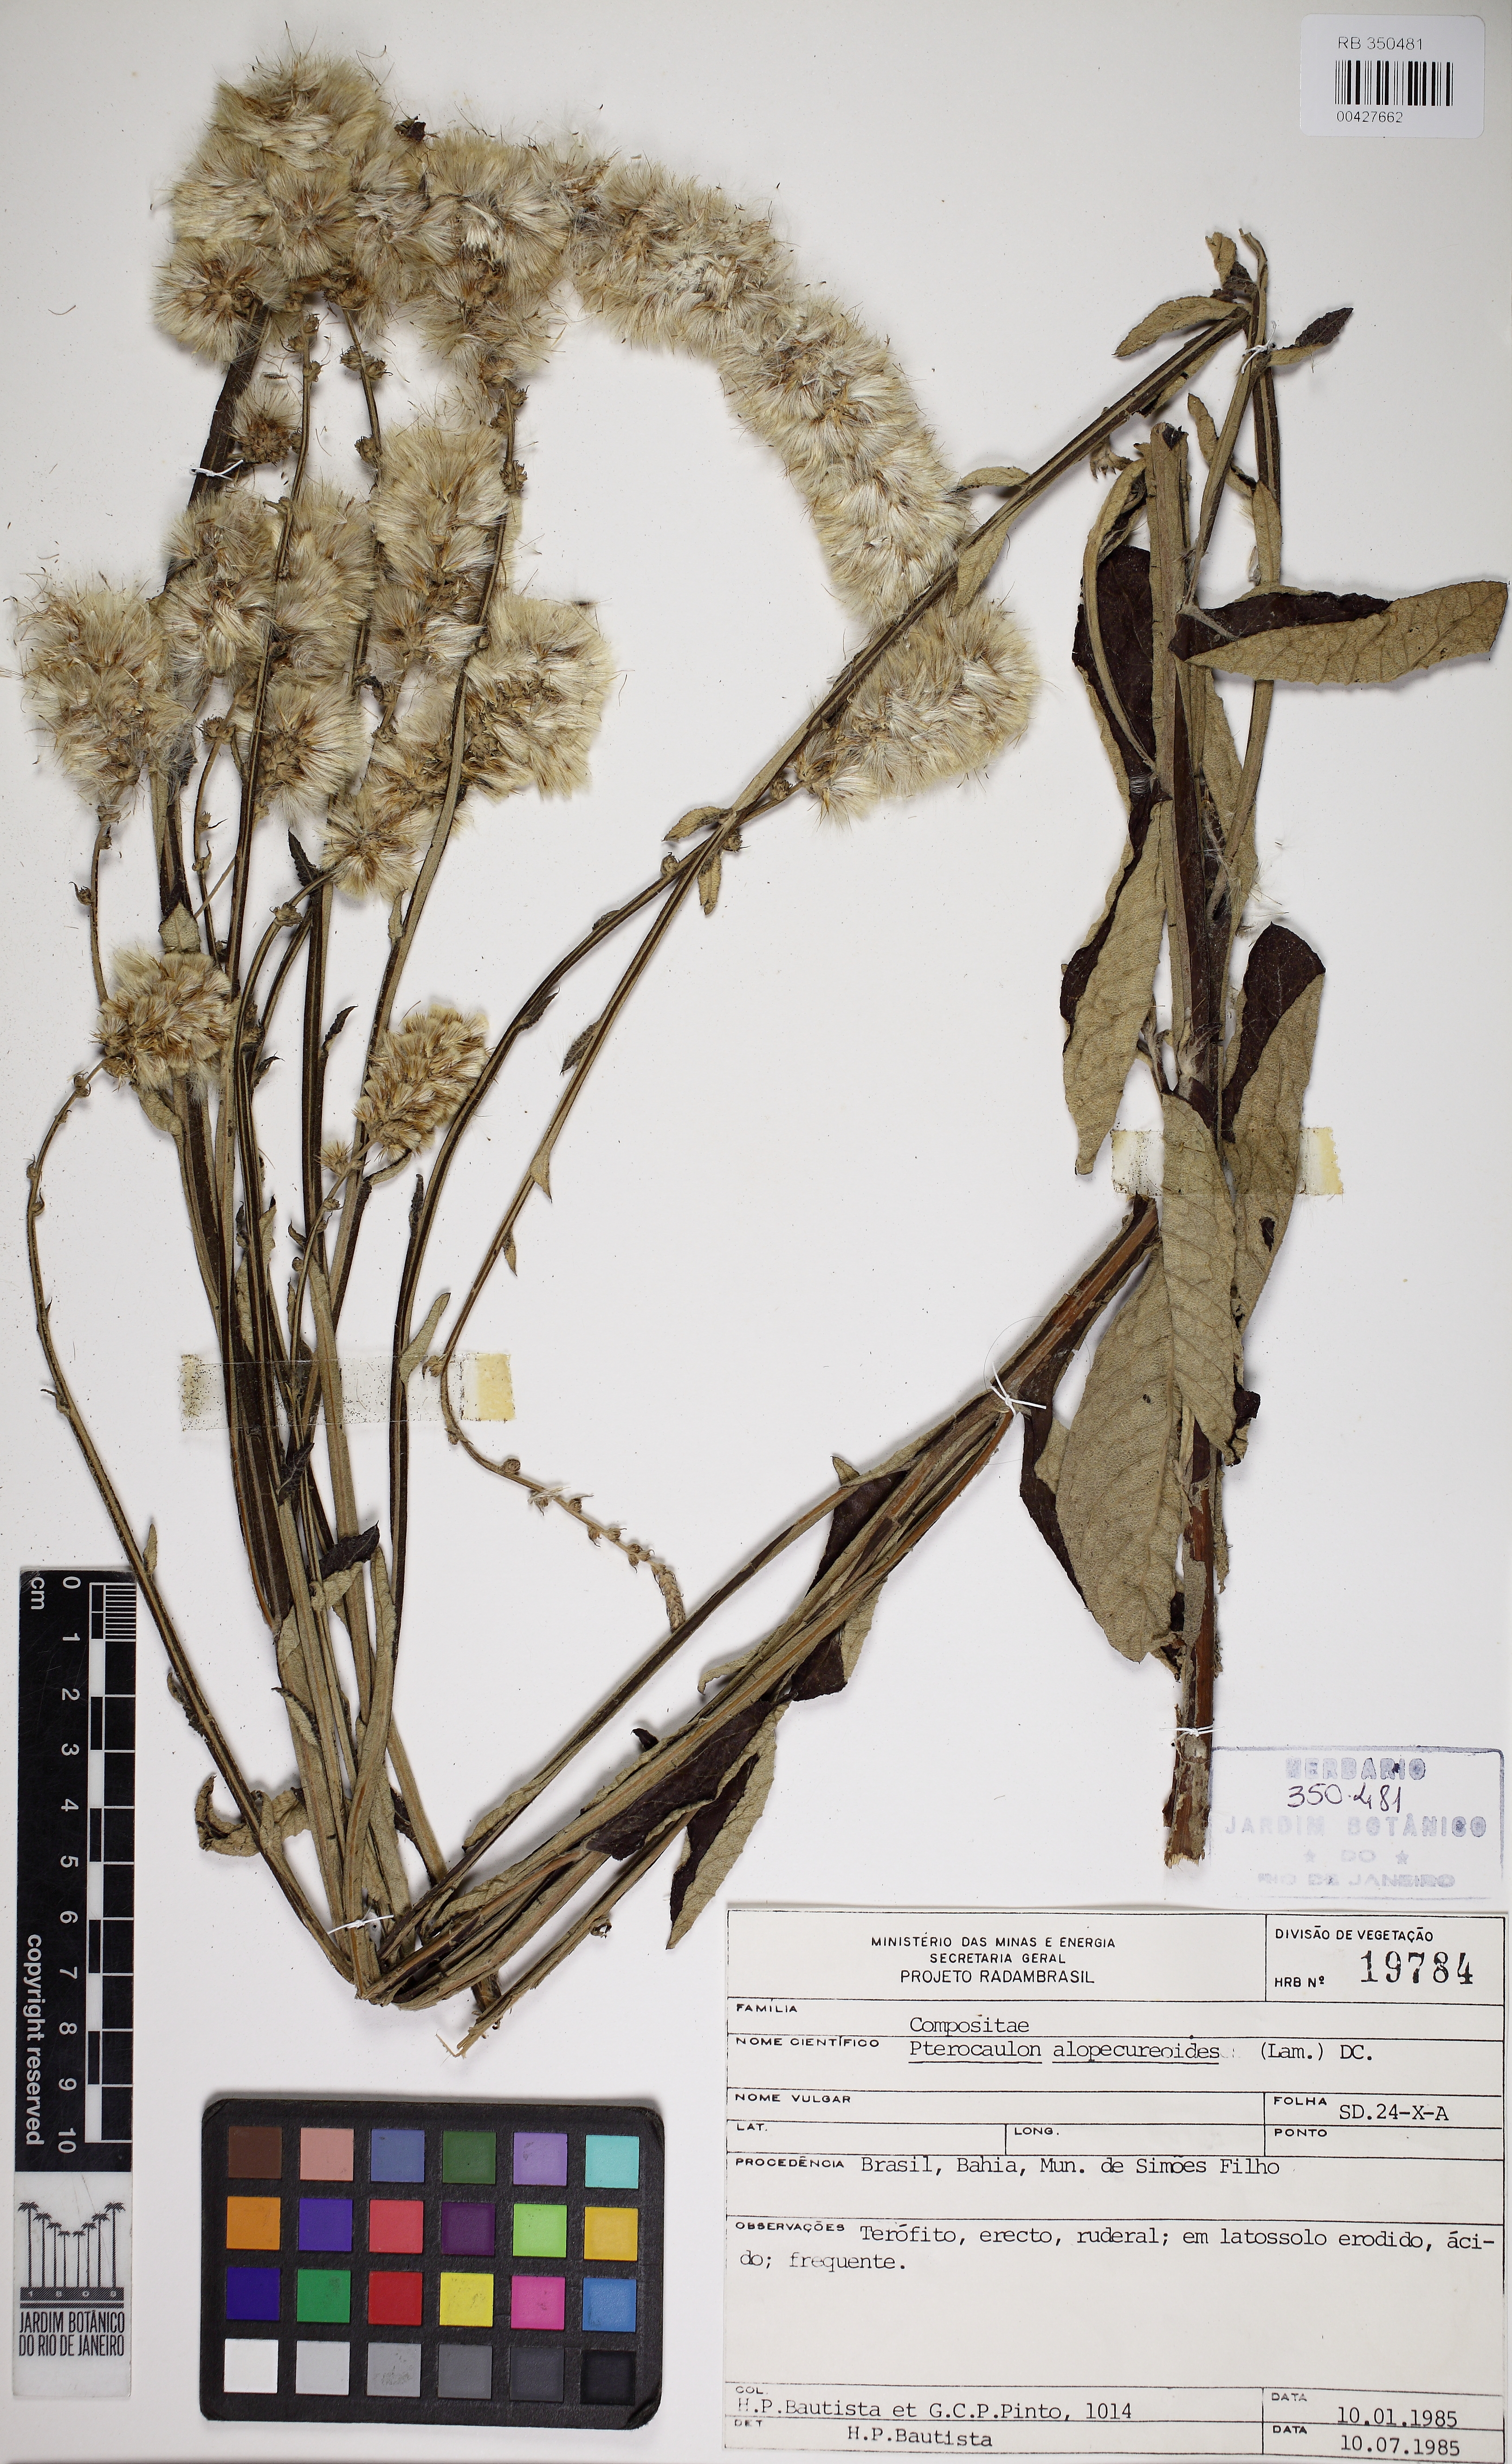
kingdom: Plantae
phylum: Tracheophyta
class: Magnoliopsida
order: Asterales
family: Asteraceae
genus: Pterocaulon
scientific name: Pterocaulon alopecuroides
